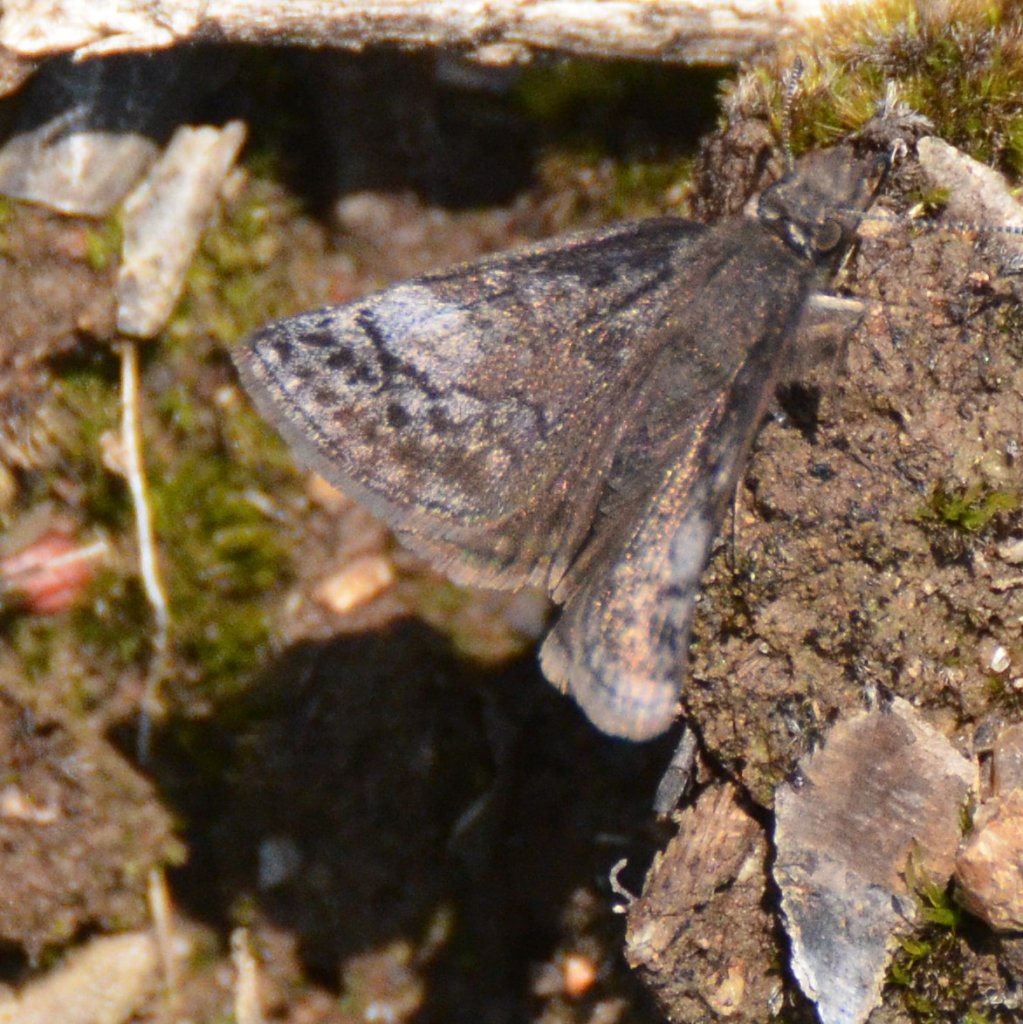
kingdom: Animalia
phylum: Arthropoda
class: Insecta
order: Lepidoptera
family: Hesperiidae
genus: Erynnis
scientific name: Erynnis icelus
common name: Dreamy Duskywing
